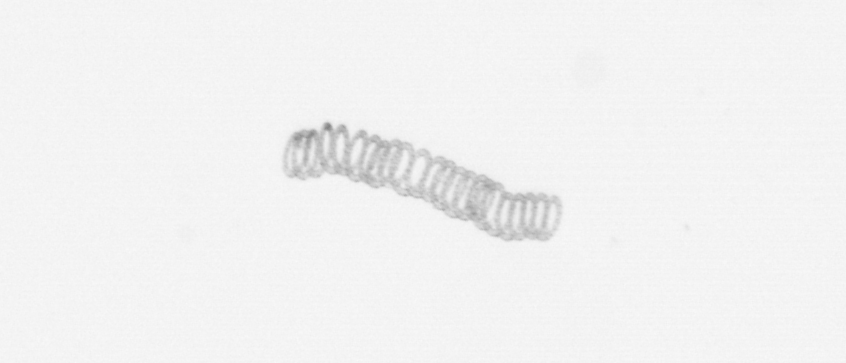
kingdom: Chromista
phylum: Ochrophyta
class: Bacillariophyceae
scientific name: Bacillariophyceae
